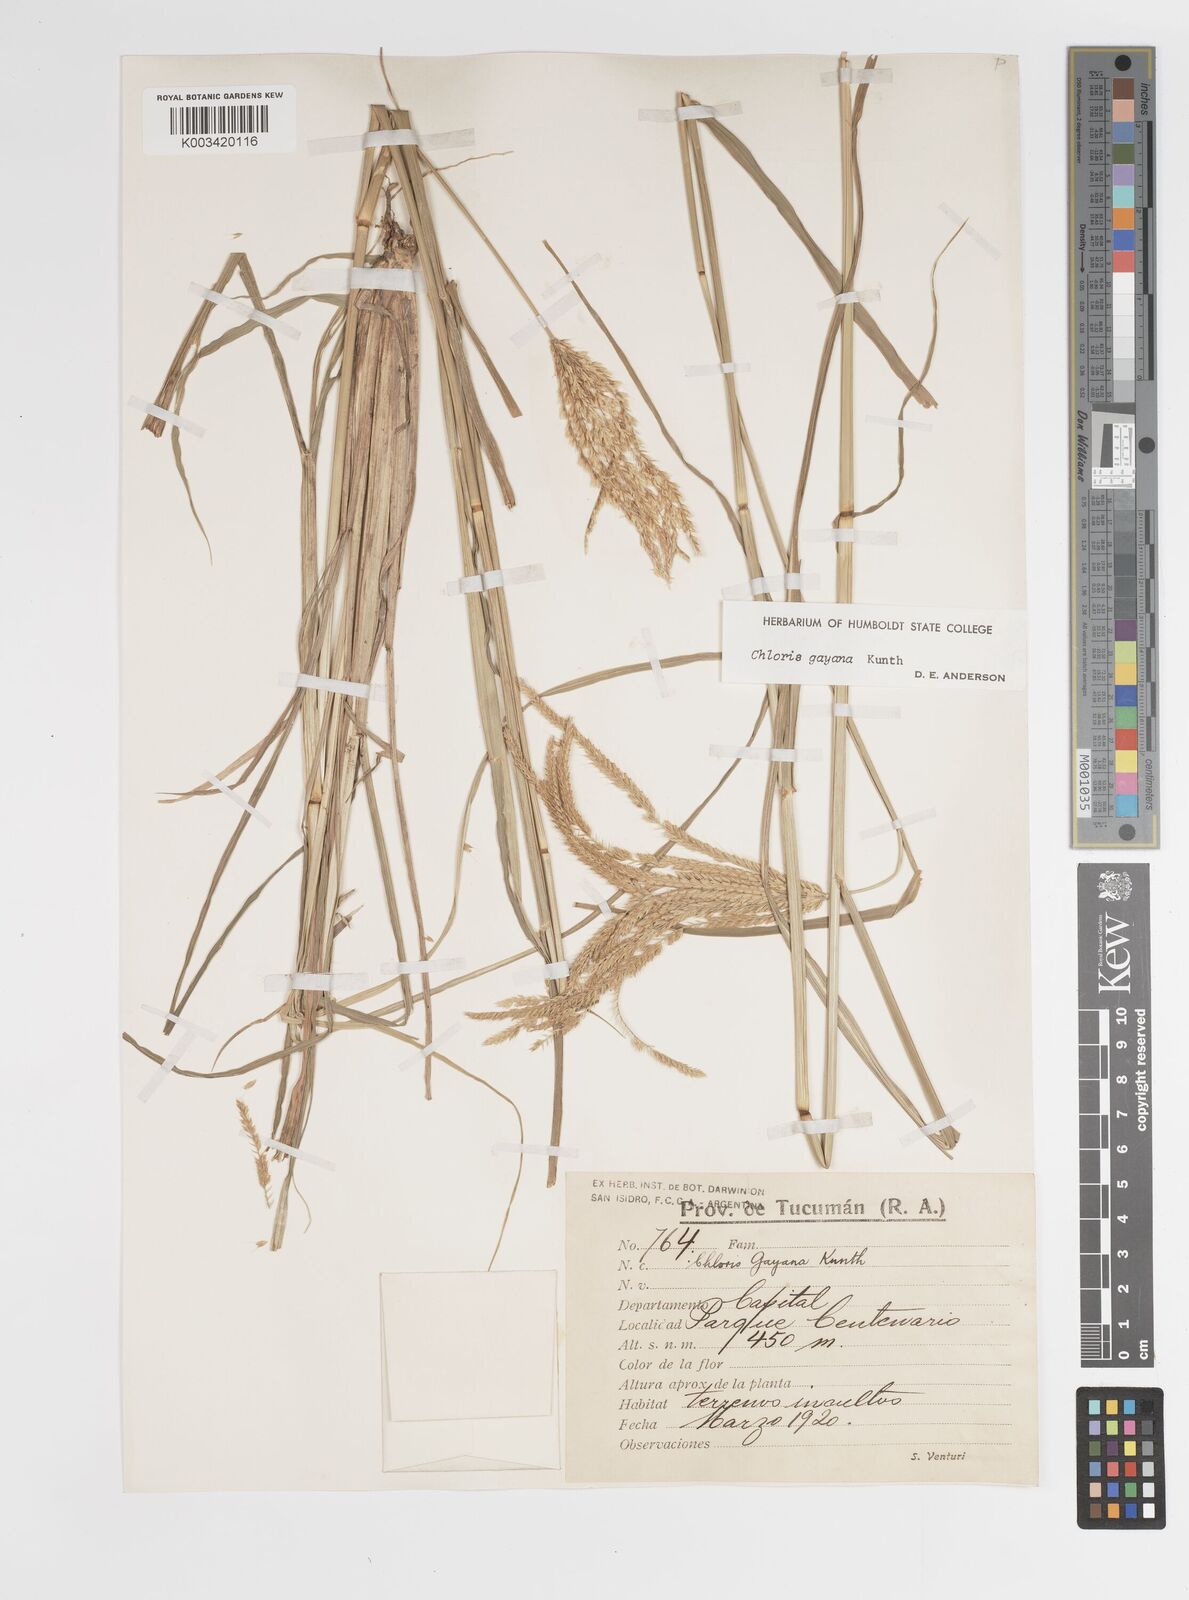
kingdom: Plantae
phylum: Tracheophyta
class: Liliopsida
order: Poales
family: Poaceae
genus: Chloris
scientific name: Chloris gayana
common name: Rhodes grass
